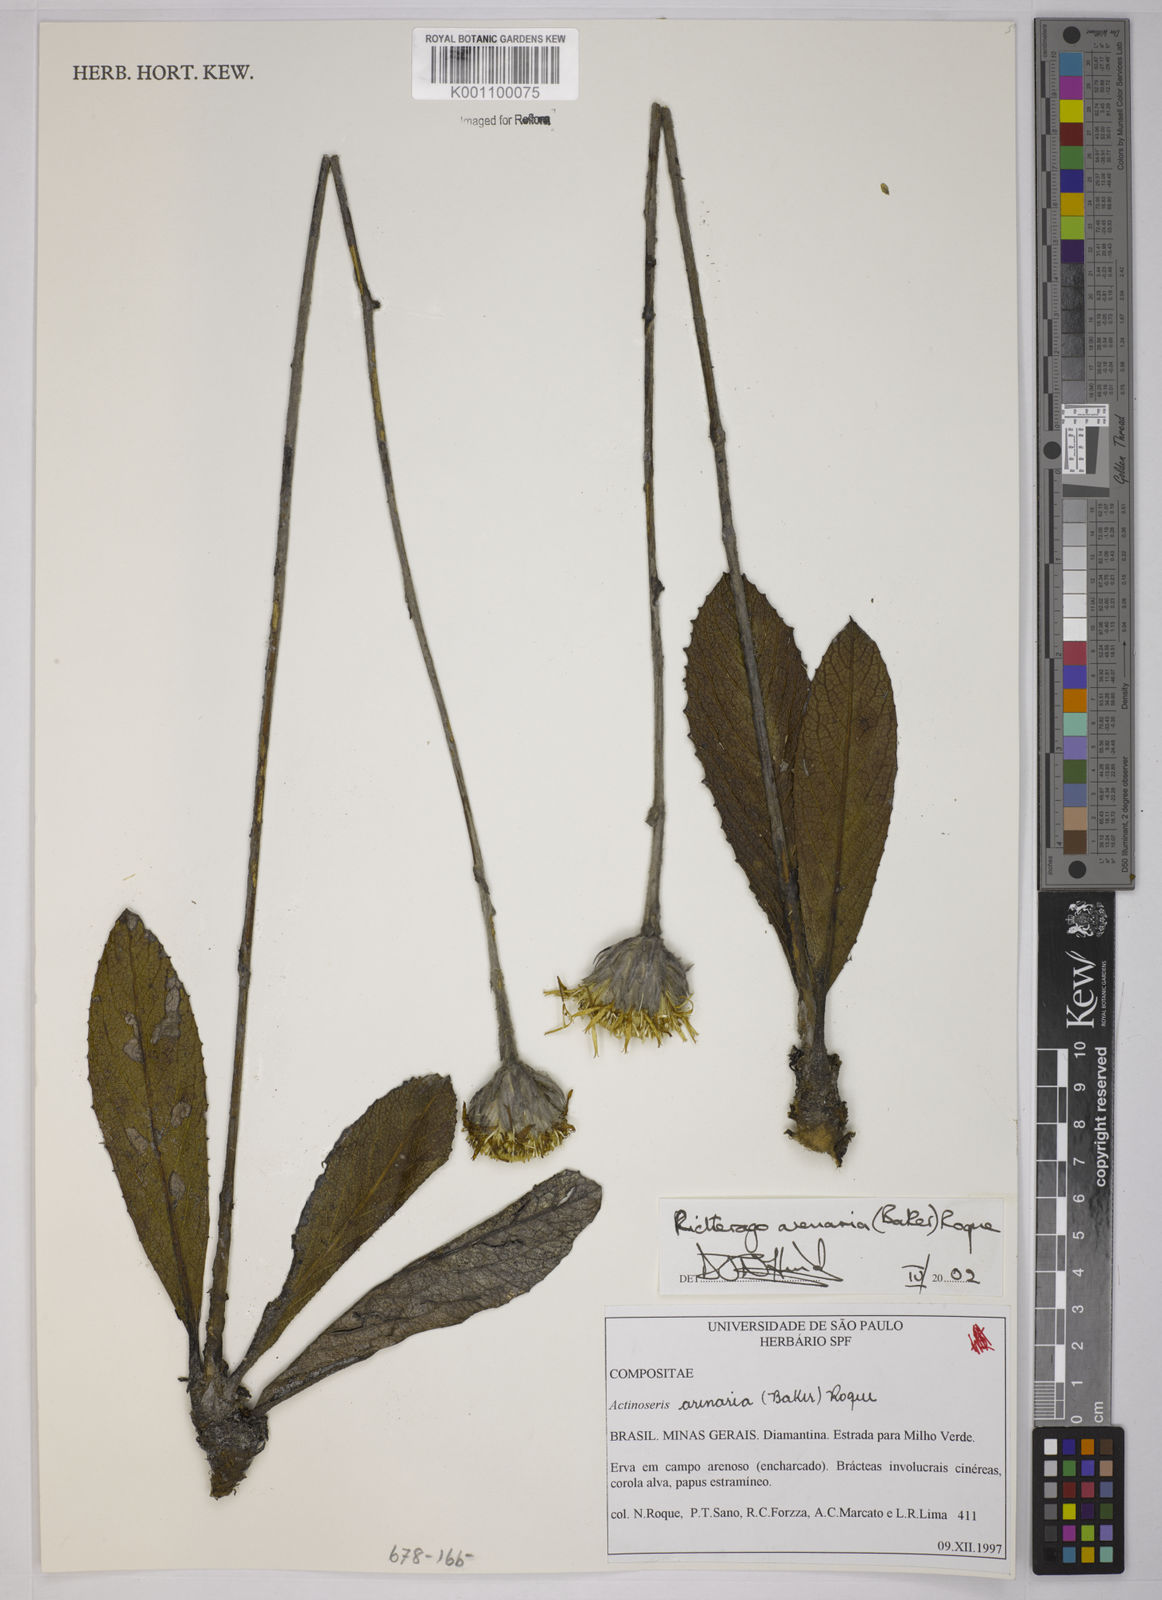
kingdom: Plantae
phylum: Tracheophyta
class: Magnoliopsida
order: Asterales
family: Asteraceae
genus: Richterago
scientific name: Richterago arenaria
